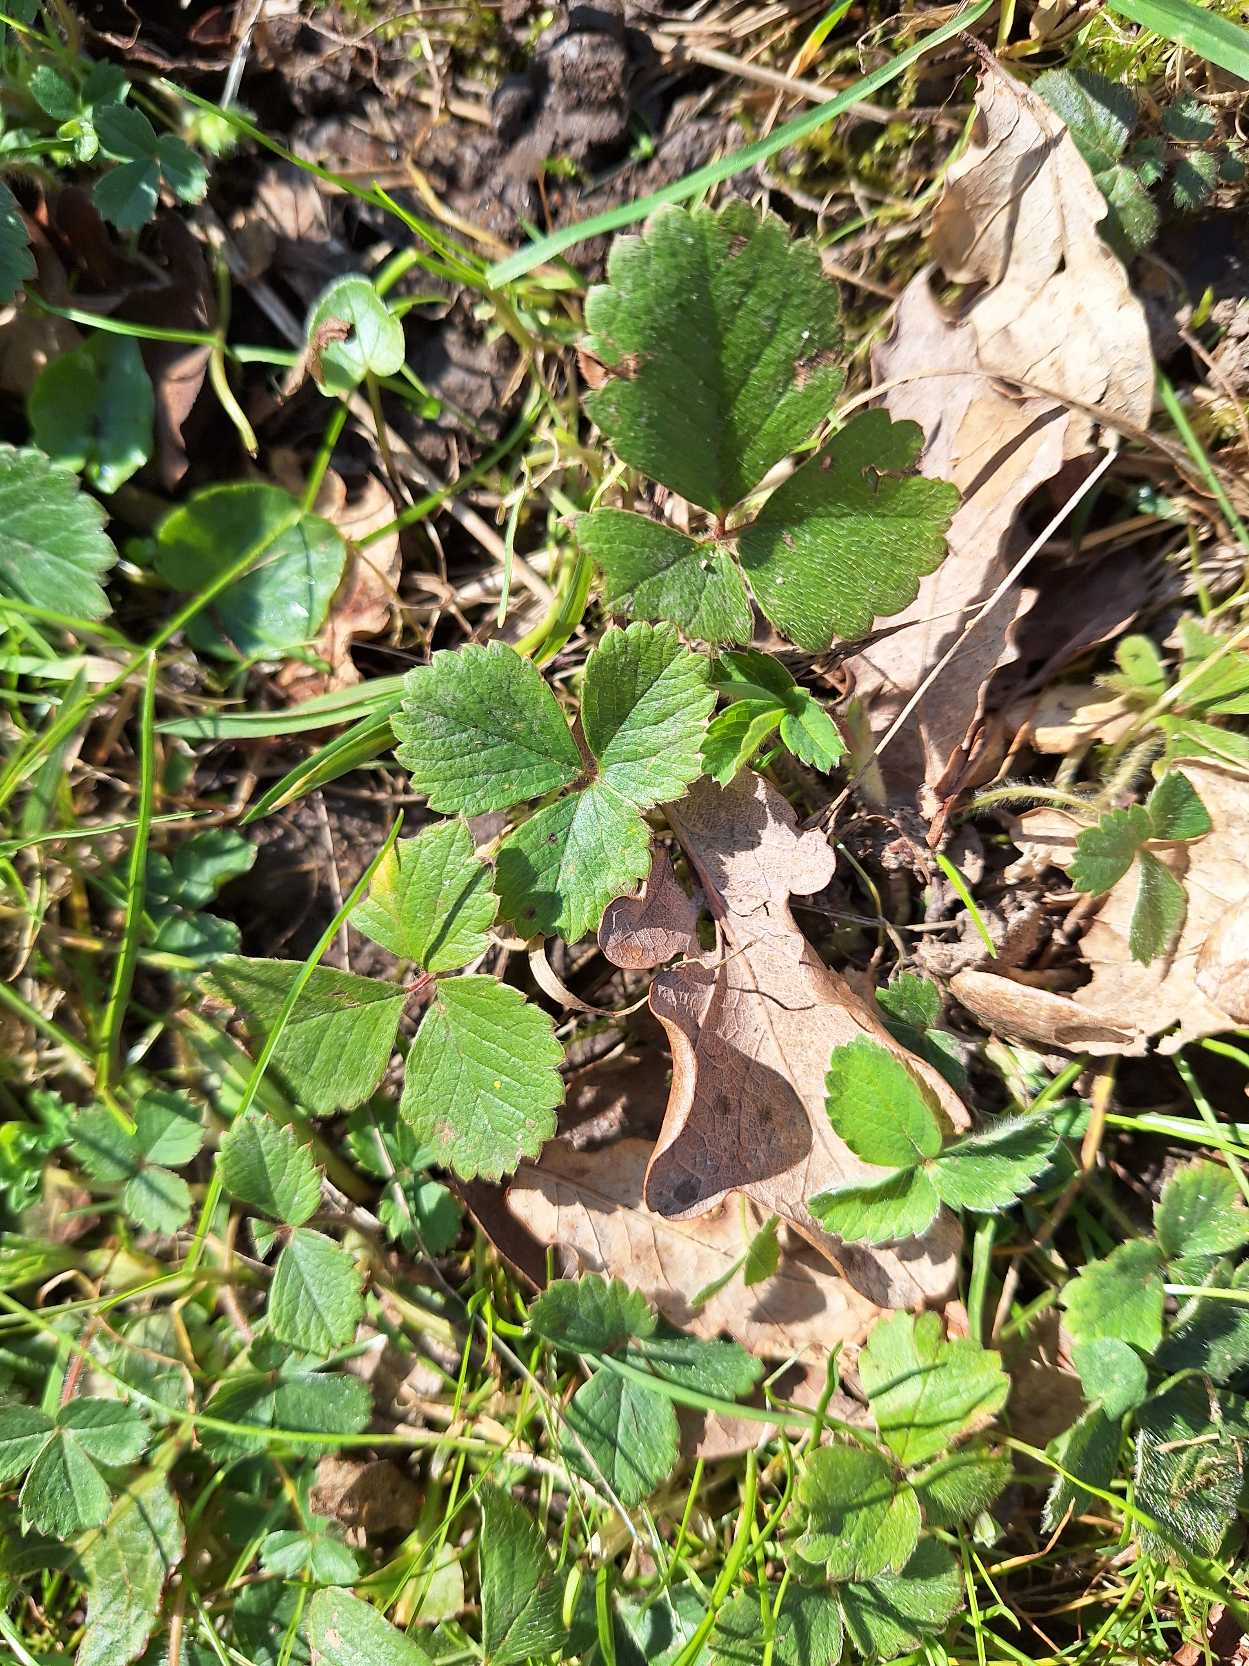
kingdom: Plantae
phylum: Tracheophyta
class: Magnoliopsida
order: Rosales
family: Rosaceae
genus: Potentilla
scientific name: Potentilla sterilis
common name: Jordbær-potentil
